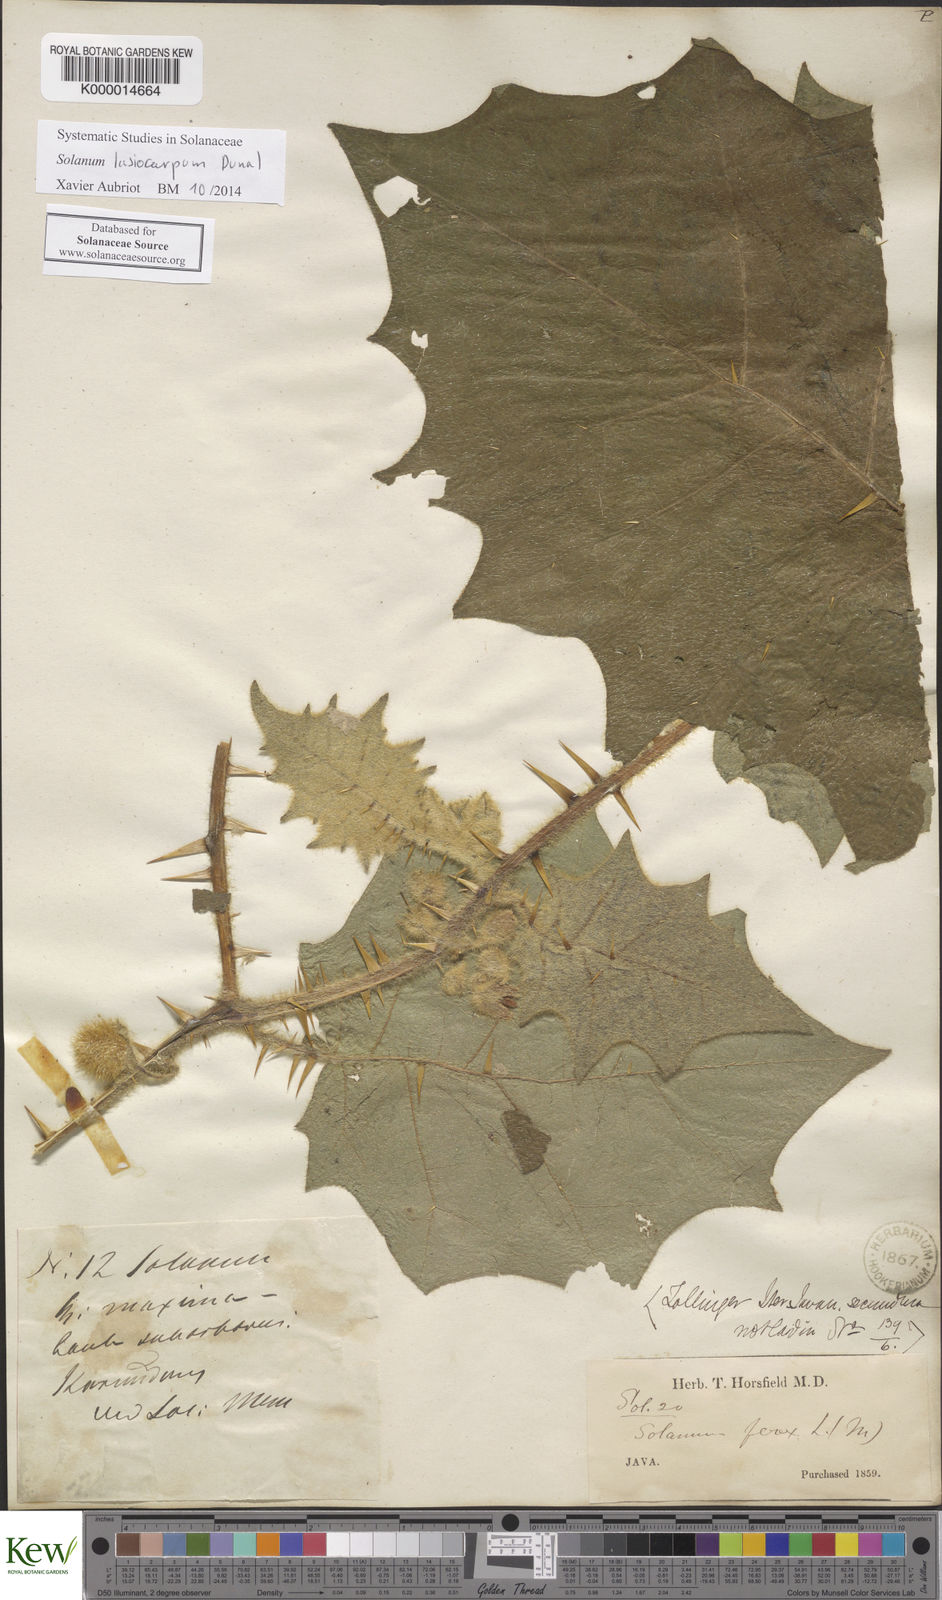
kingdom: Plantae
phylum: Tracheophyta
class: Magnoliopsida
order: Solanales
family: Solanaceae
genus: Solanum
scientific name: Solanum lasiocarpum
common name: Indian nightshade
